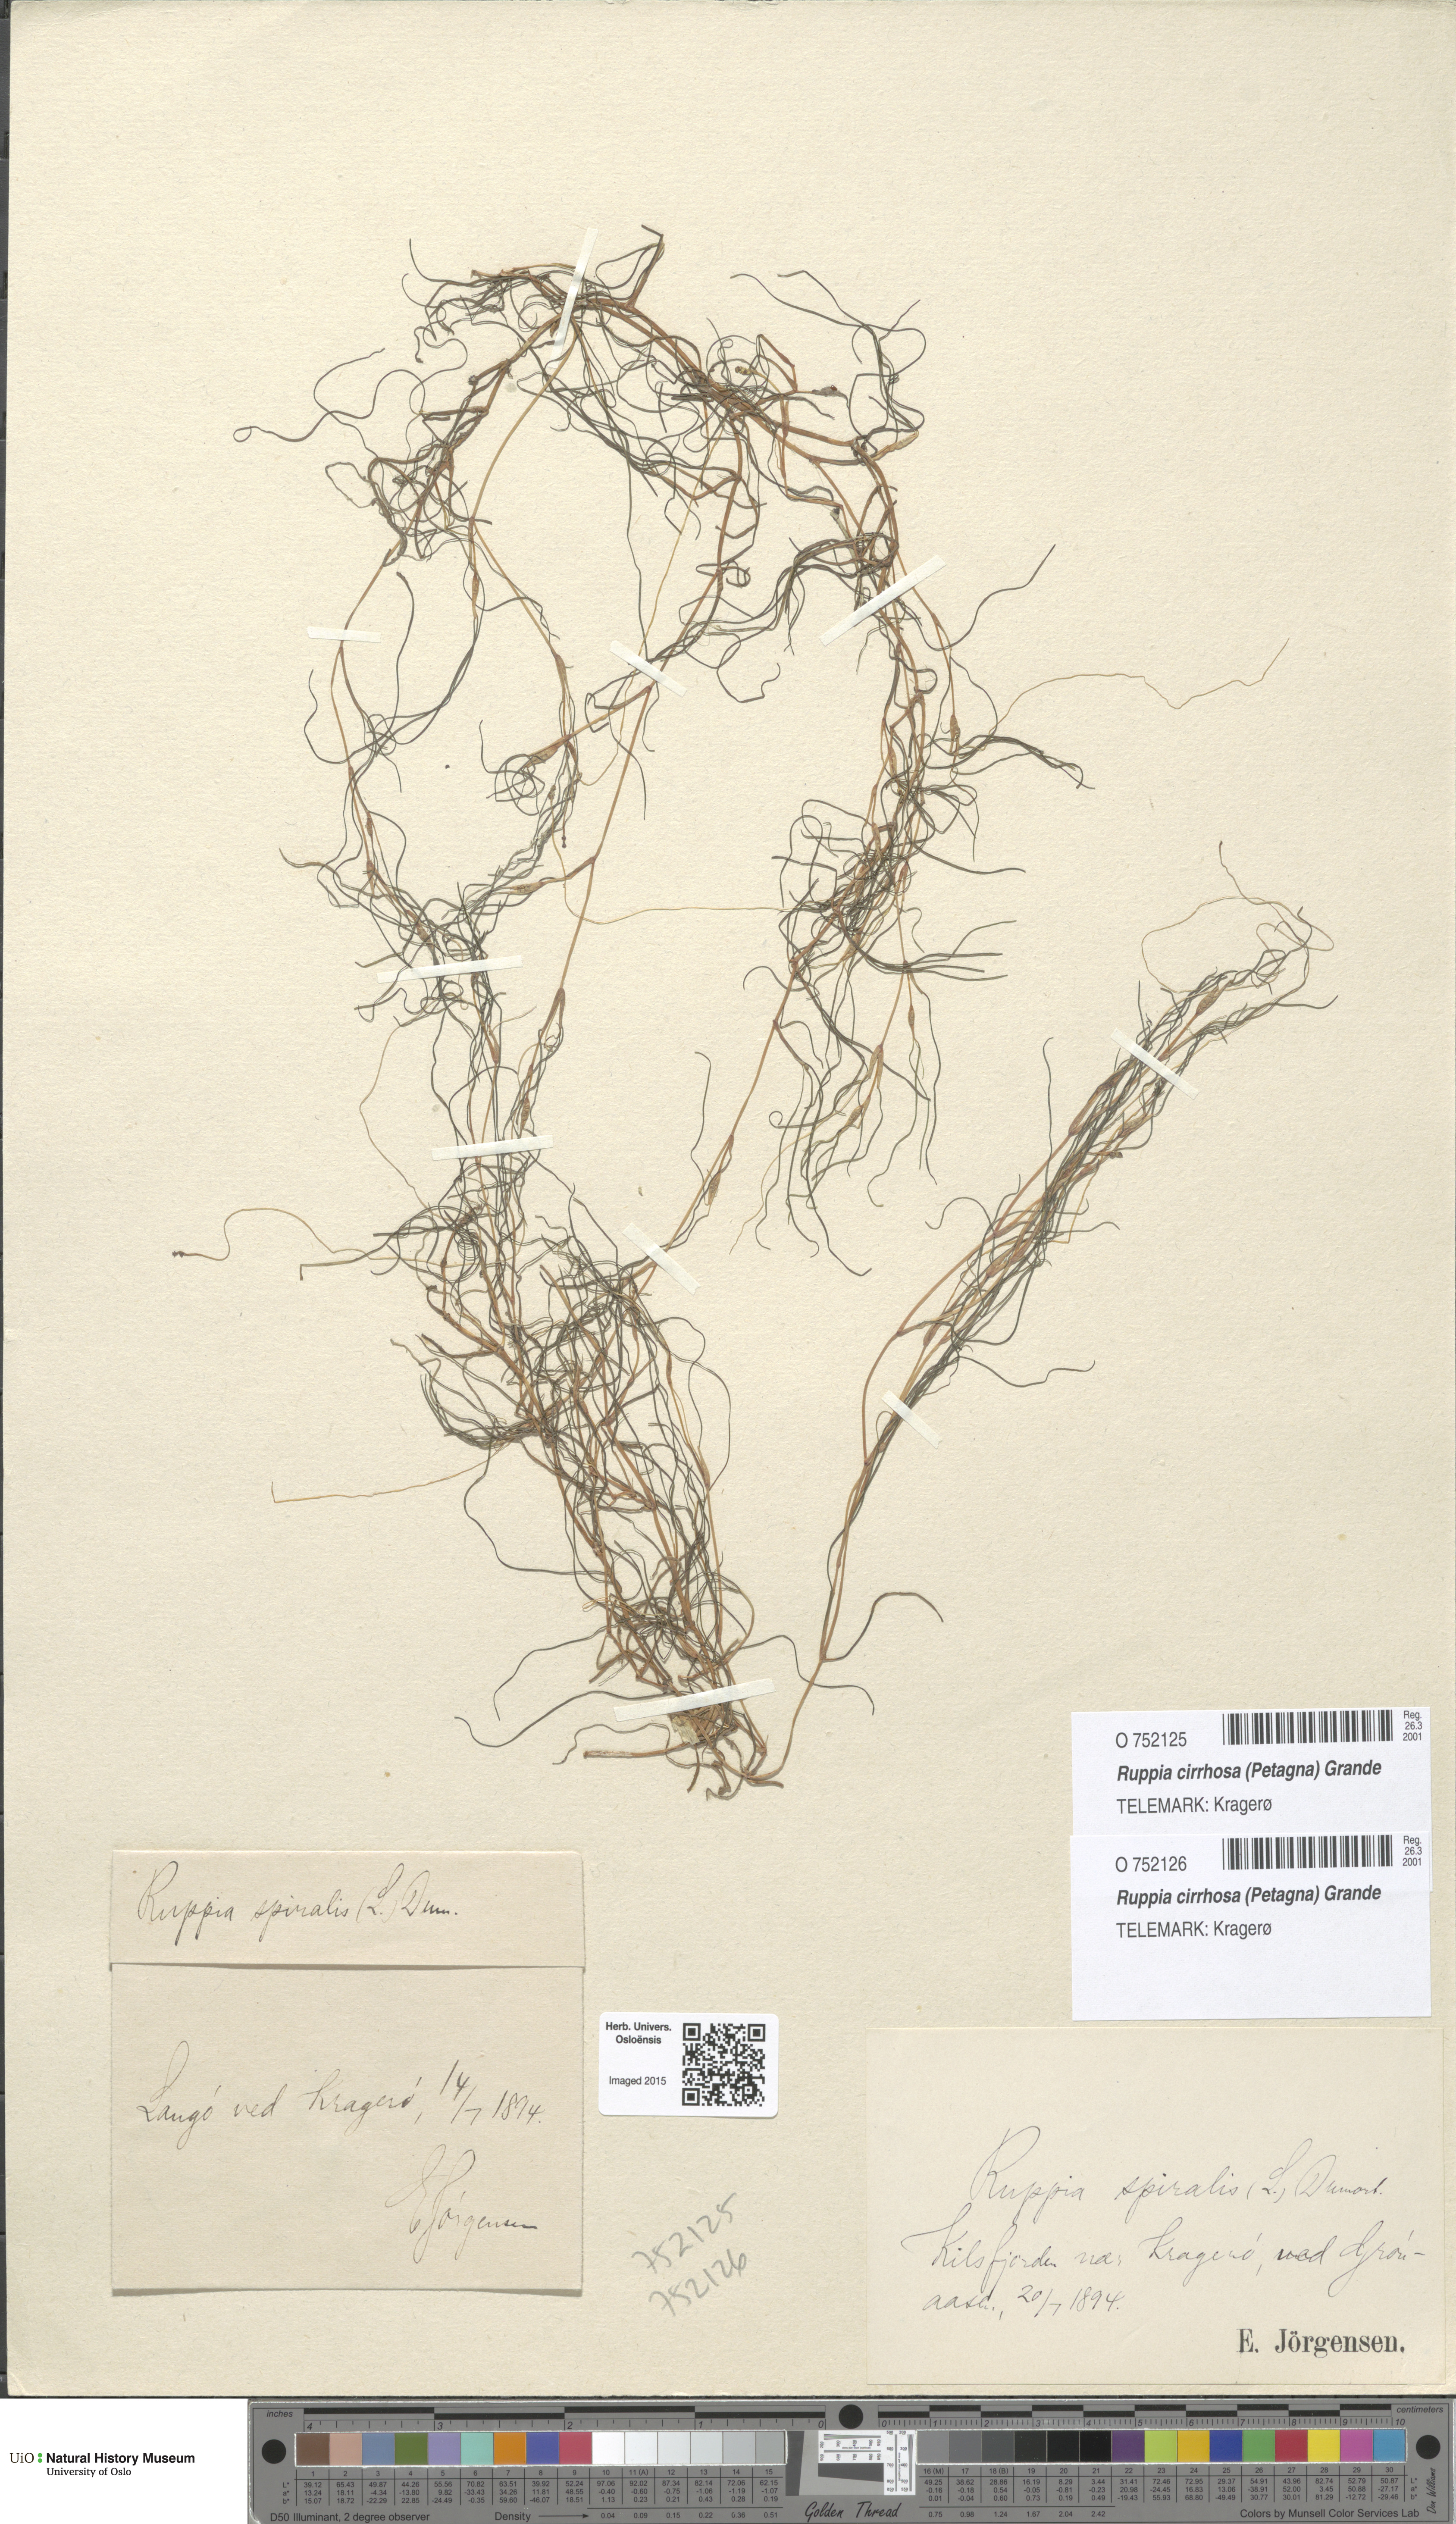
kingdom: Plantae
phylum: Tracheophyta
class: Liliopsida
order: Alismatales
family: Ruppiaceae
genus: Ruppia
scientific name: Ruppia cirrhosa
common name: Spiral tasselweed
